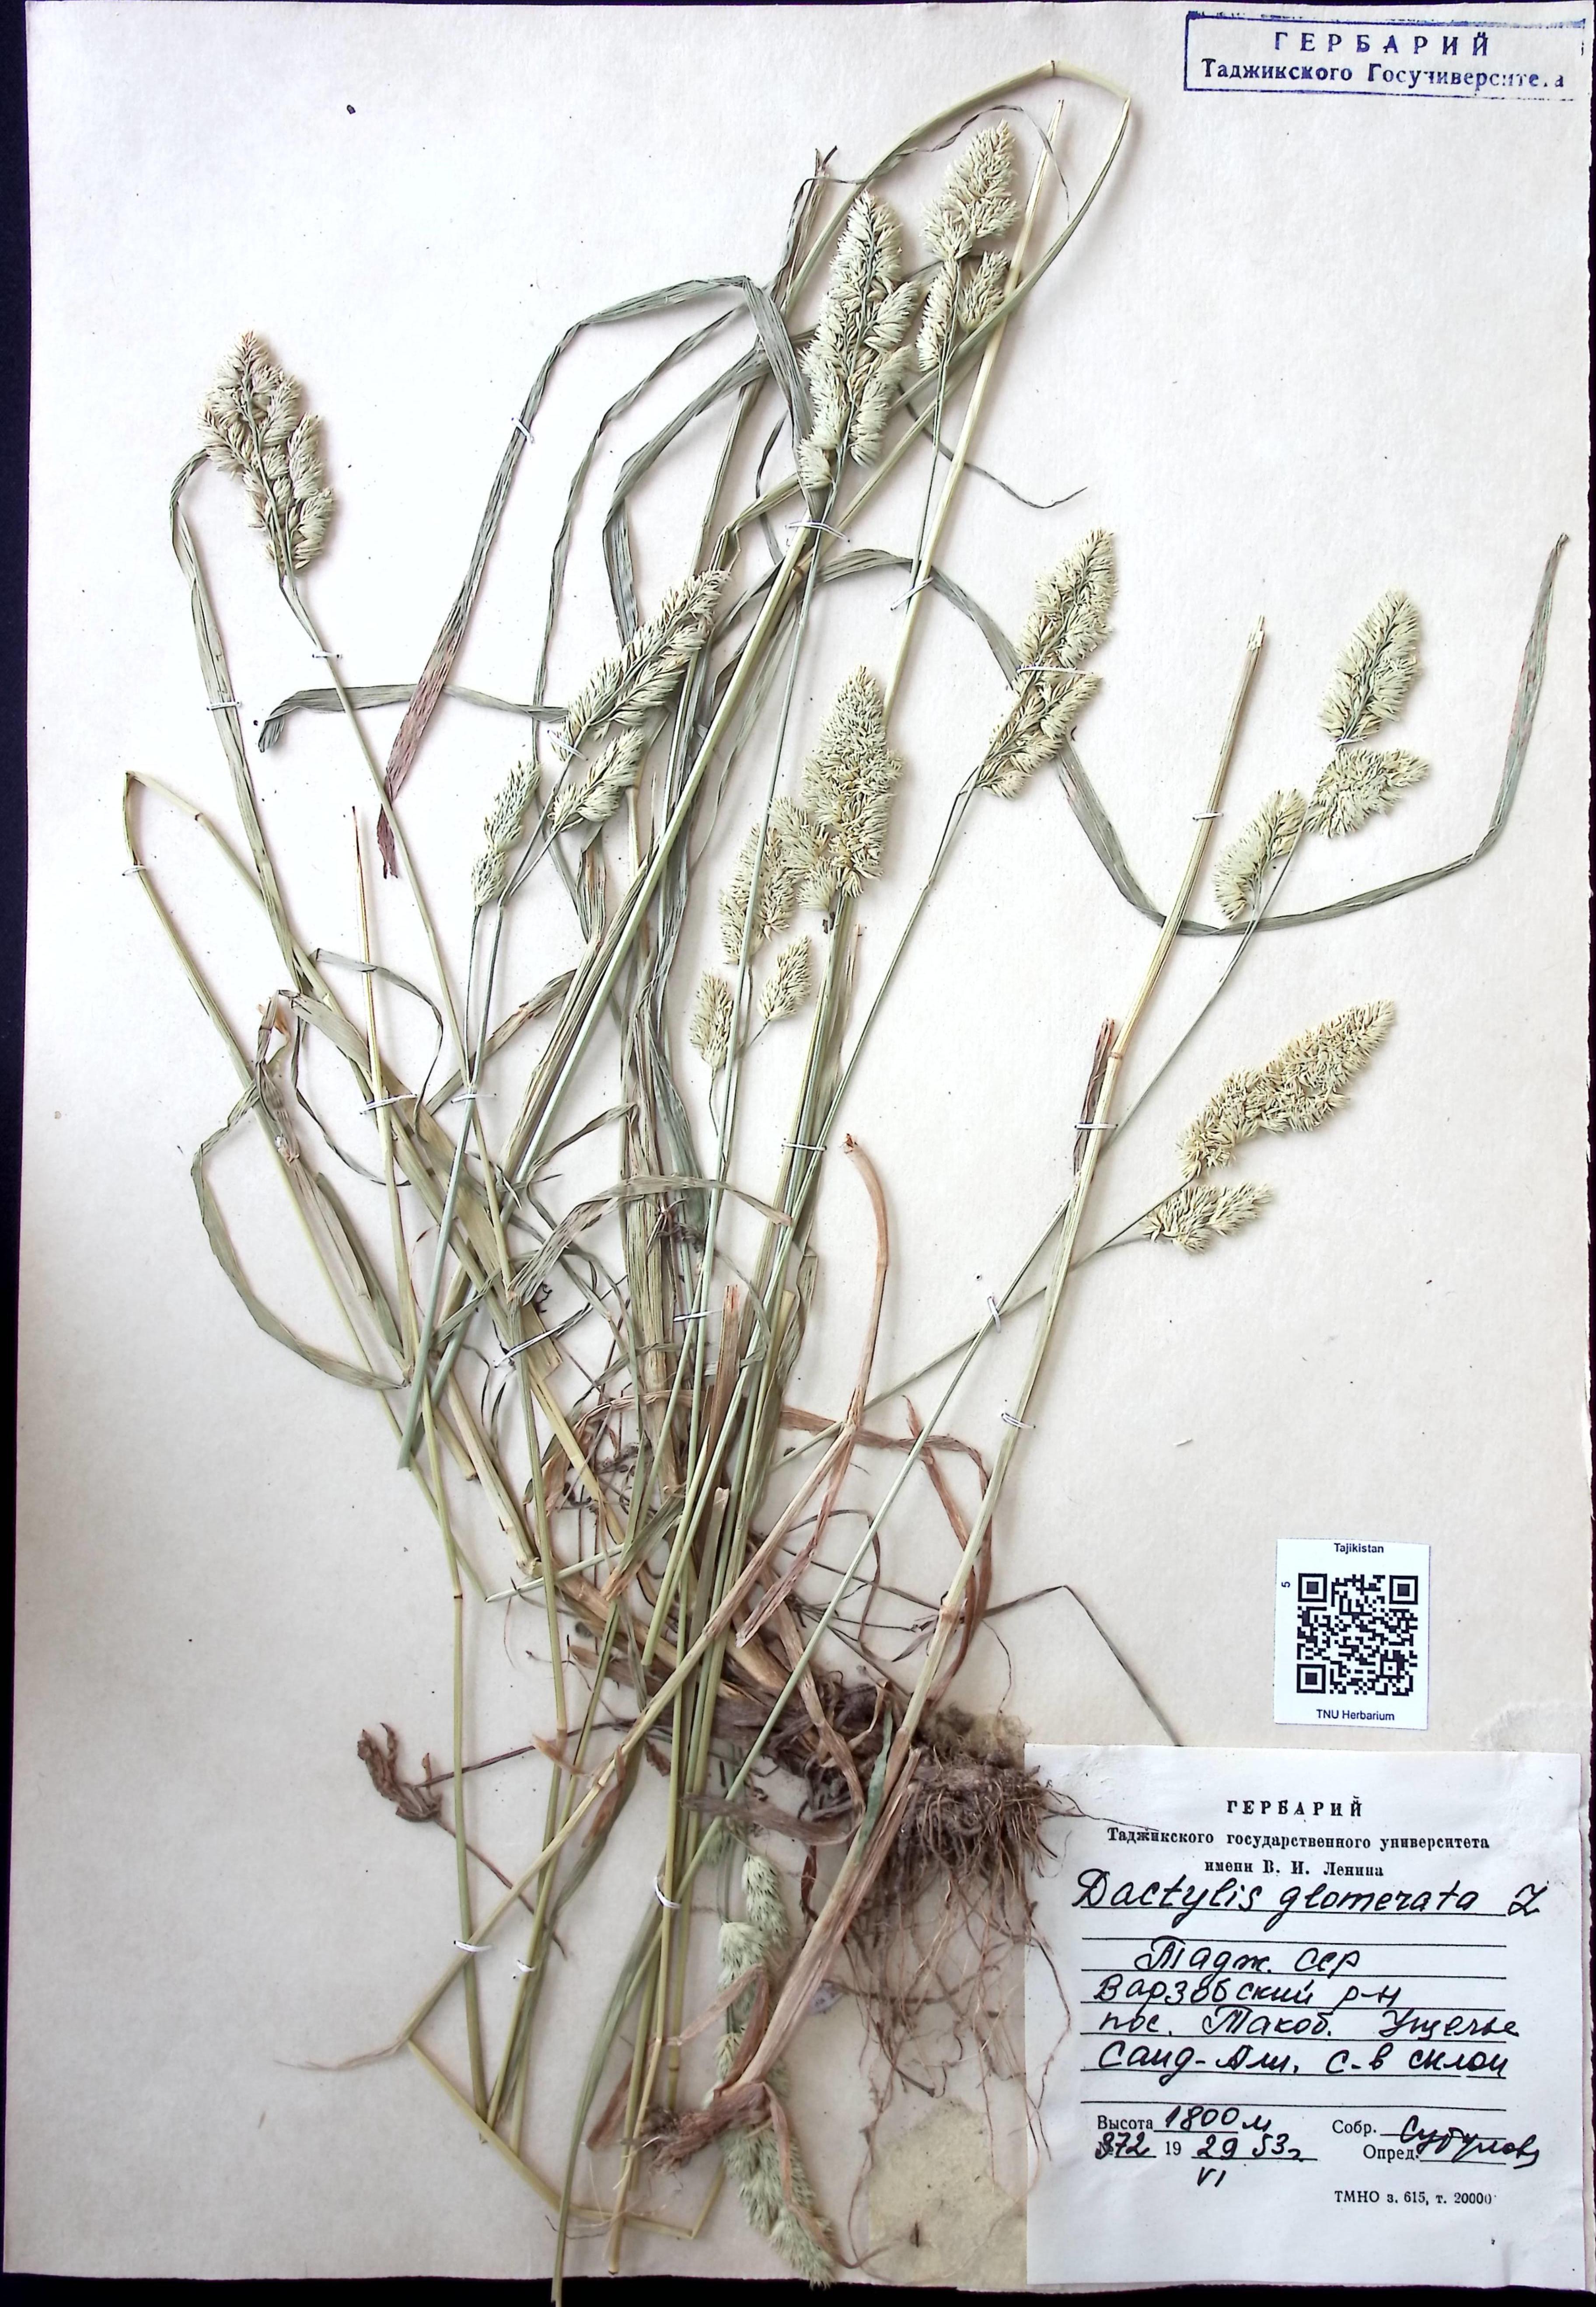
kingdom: Plantae
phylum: Tracheophyta
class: Liliopsida
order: Poales
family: Poaceae
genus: Dactylis
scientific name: Dactylis glomerata
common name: Orchardgrass
